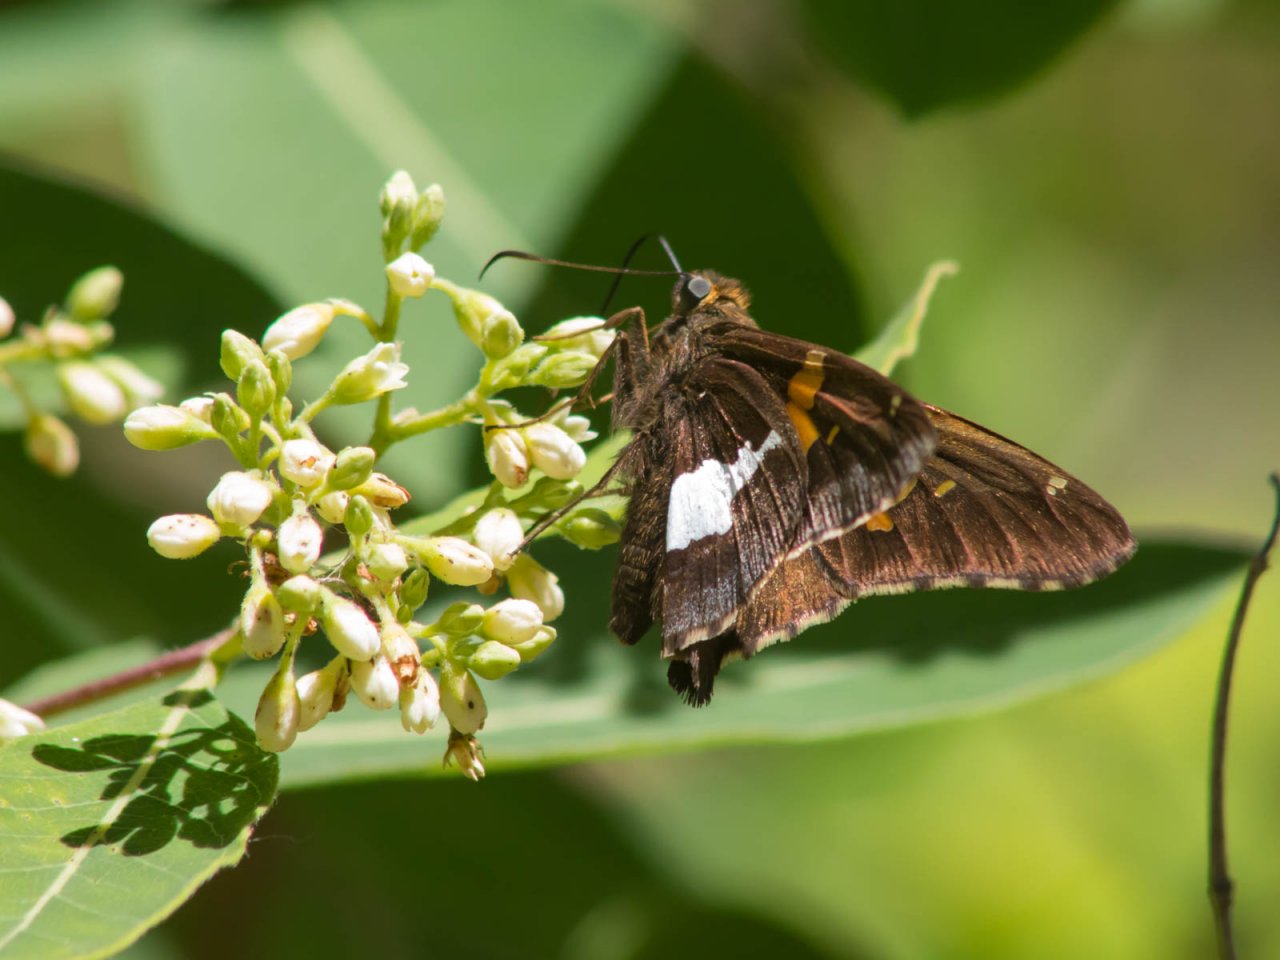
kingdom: Animalia
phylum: Arthropoda
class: Insecta
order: Lepidoptera
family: Hesperiidae
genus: Epargyreus
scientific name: Epargyreus clarus
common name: Silver-spotted Skipper
